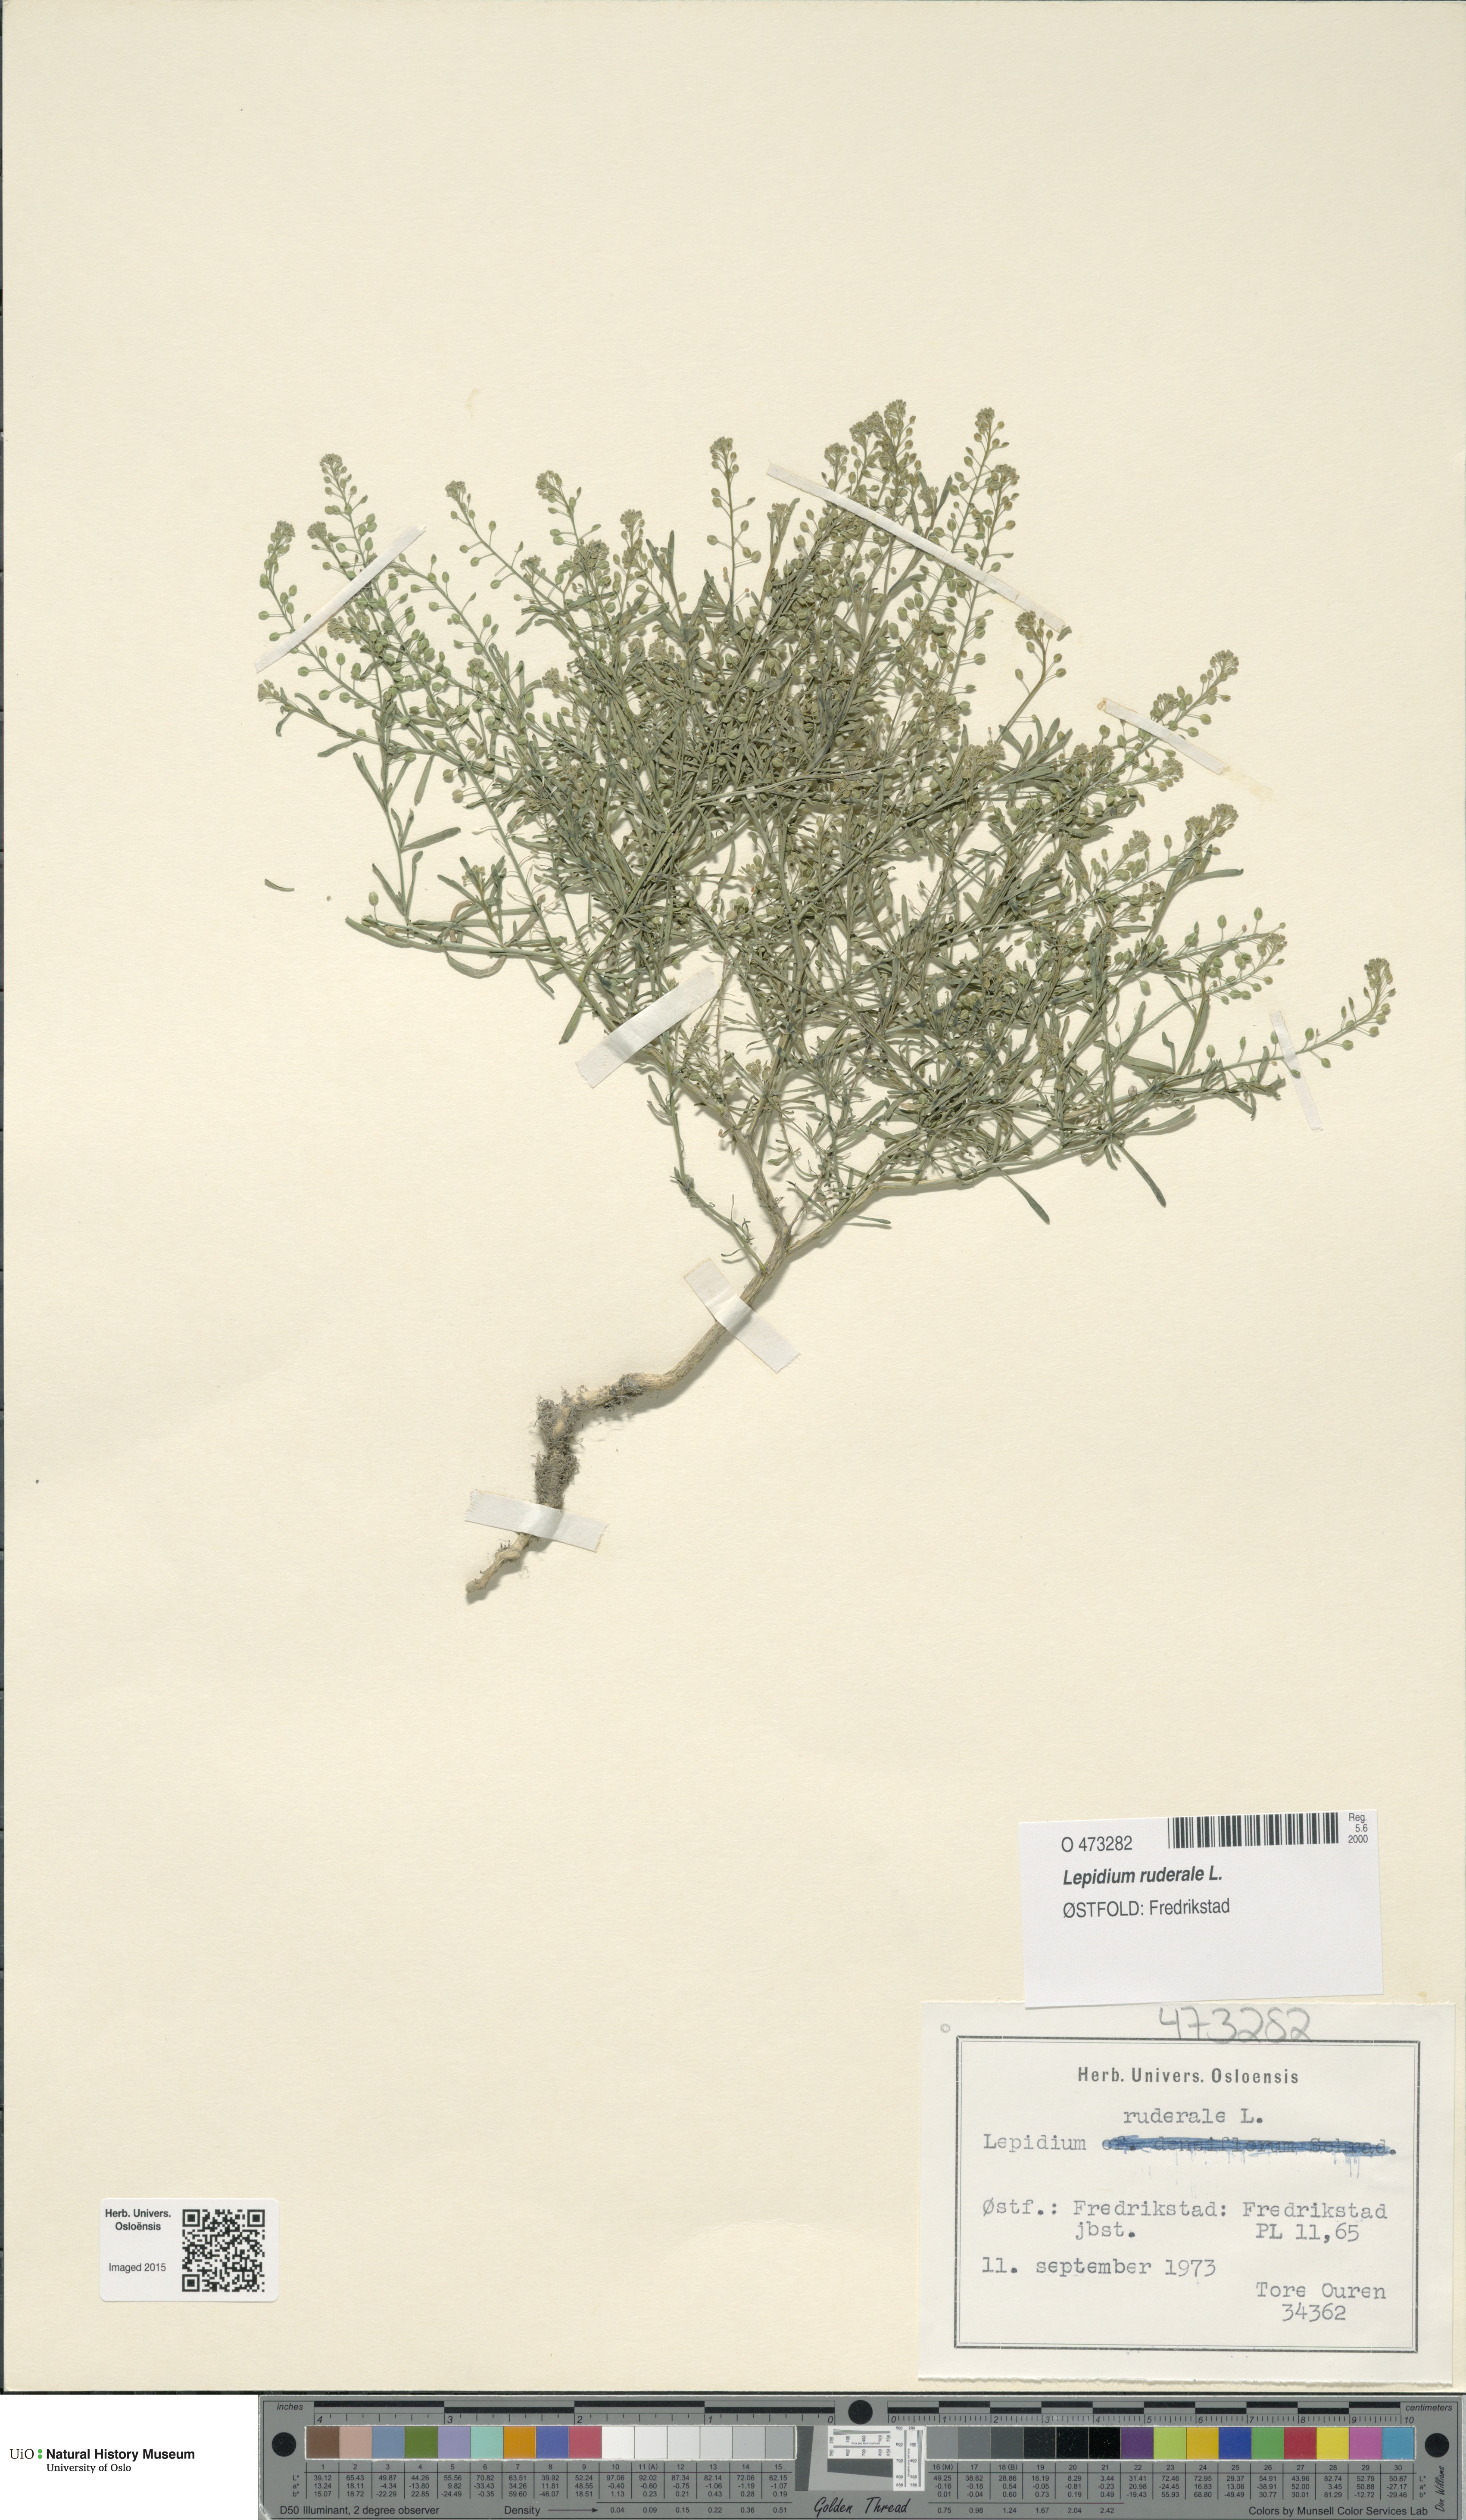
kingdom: Plantae
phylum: Tracheophyta
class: Magnoliopsida
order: Brassicales
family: Brassicaceae
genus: Lepidium
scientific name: Lepidium ruderale
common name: Narrow-leaved pepperwort
